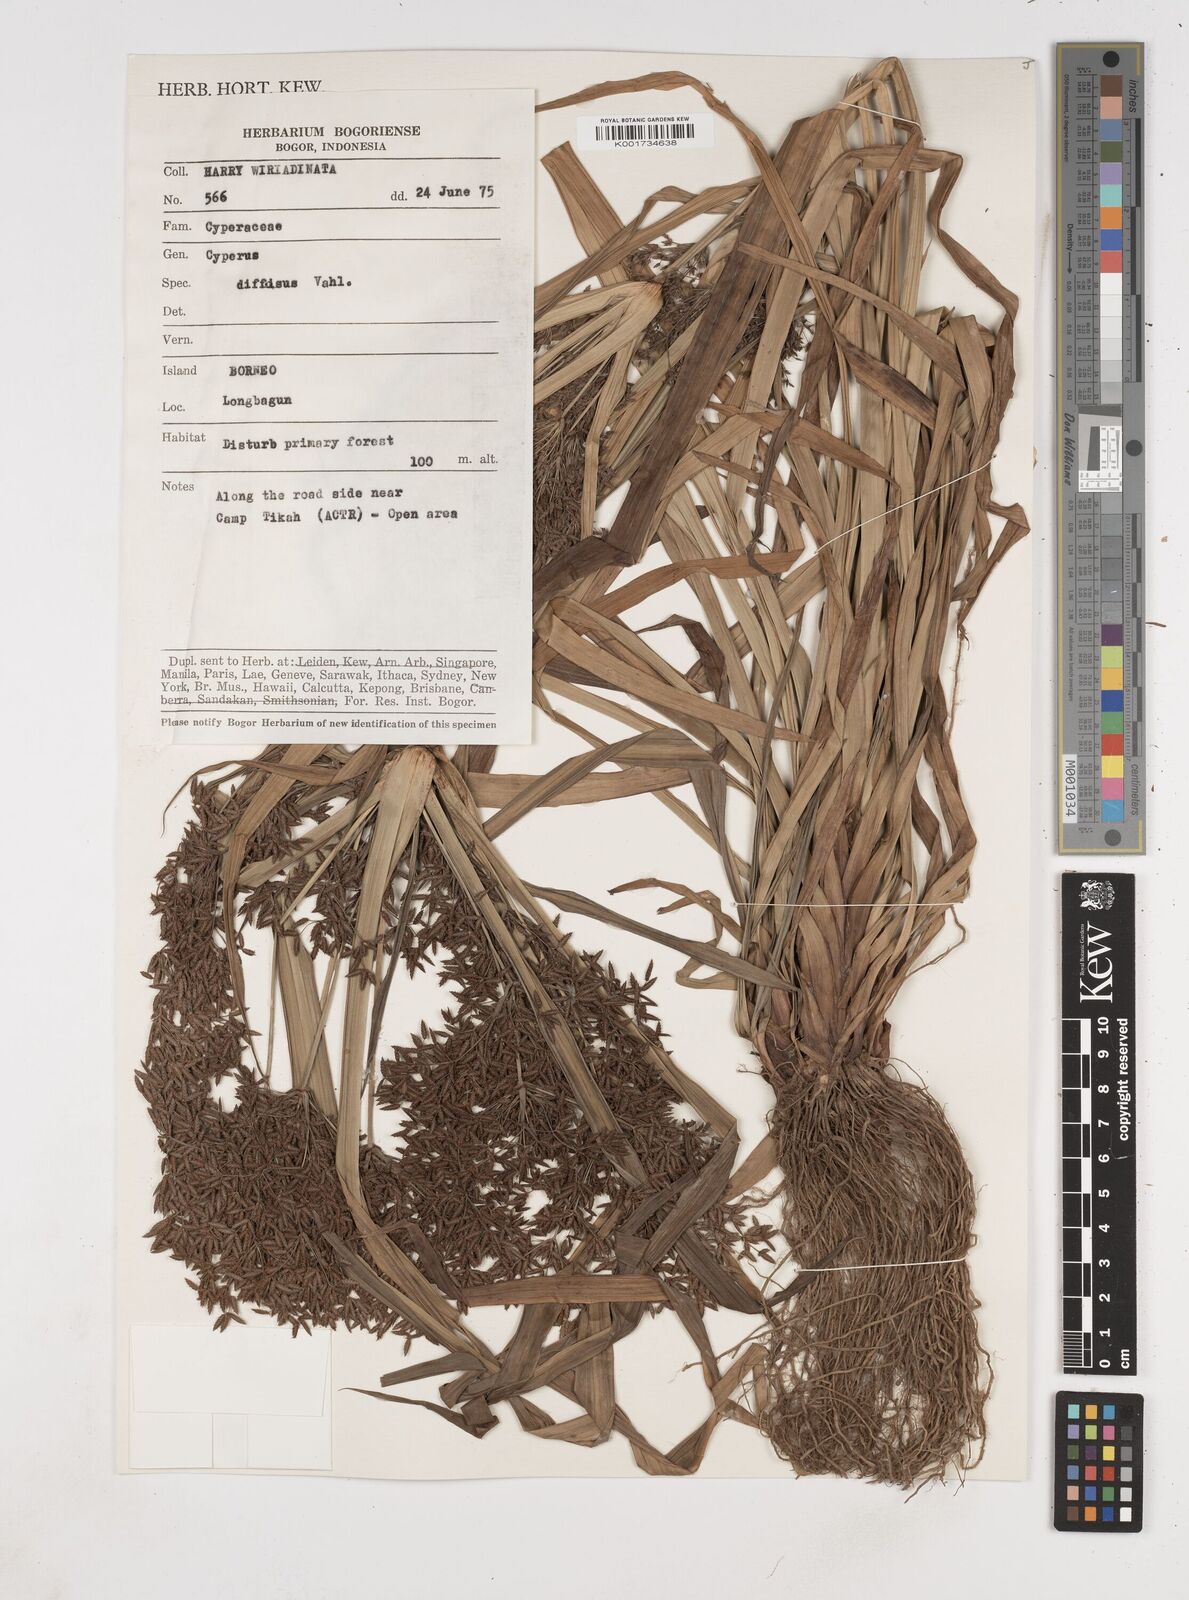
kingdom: Plantae
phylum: Tracheophyta
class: Liliopsida
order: Poales
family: Cyperaceae
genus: Cyperus
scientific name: Cyperus diffusus
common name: Dwarf umbrella grass
